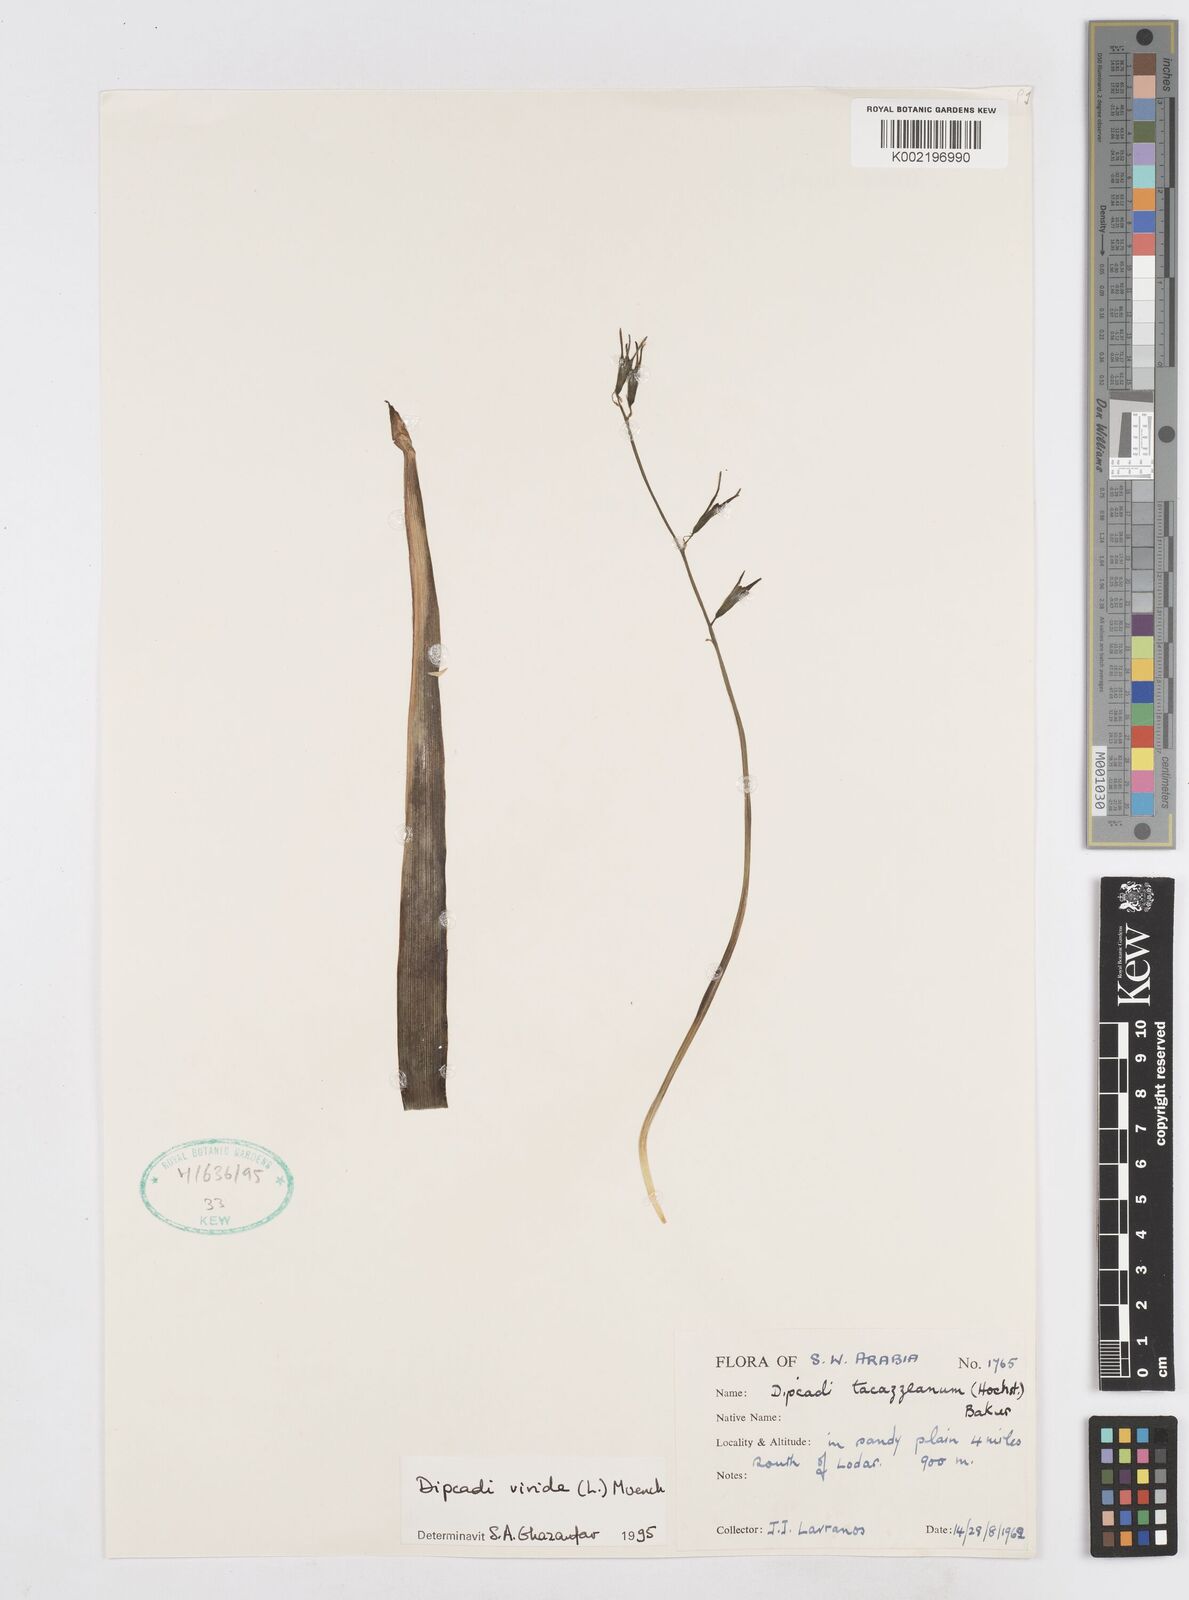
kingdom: Plantae
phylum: Tracheophyta
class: Liliopsida
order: Asparagales
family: Asparagaceae
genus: Dipcadi
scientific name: Dipcadi viride
